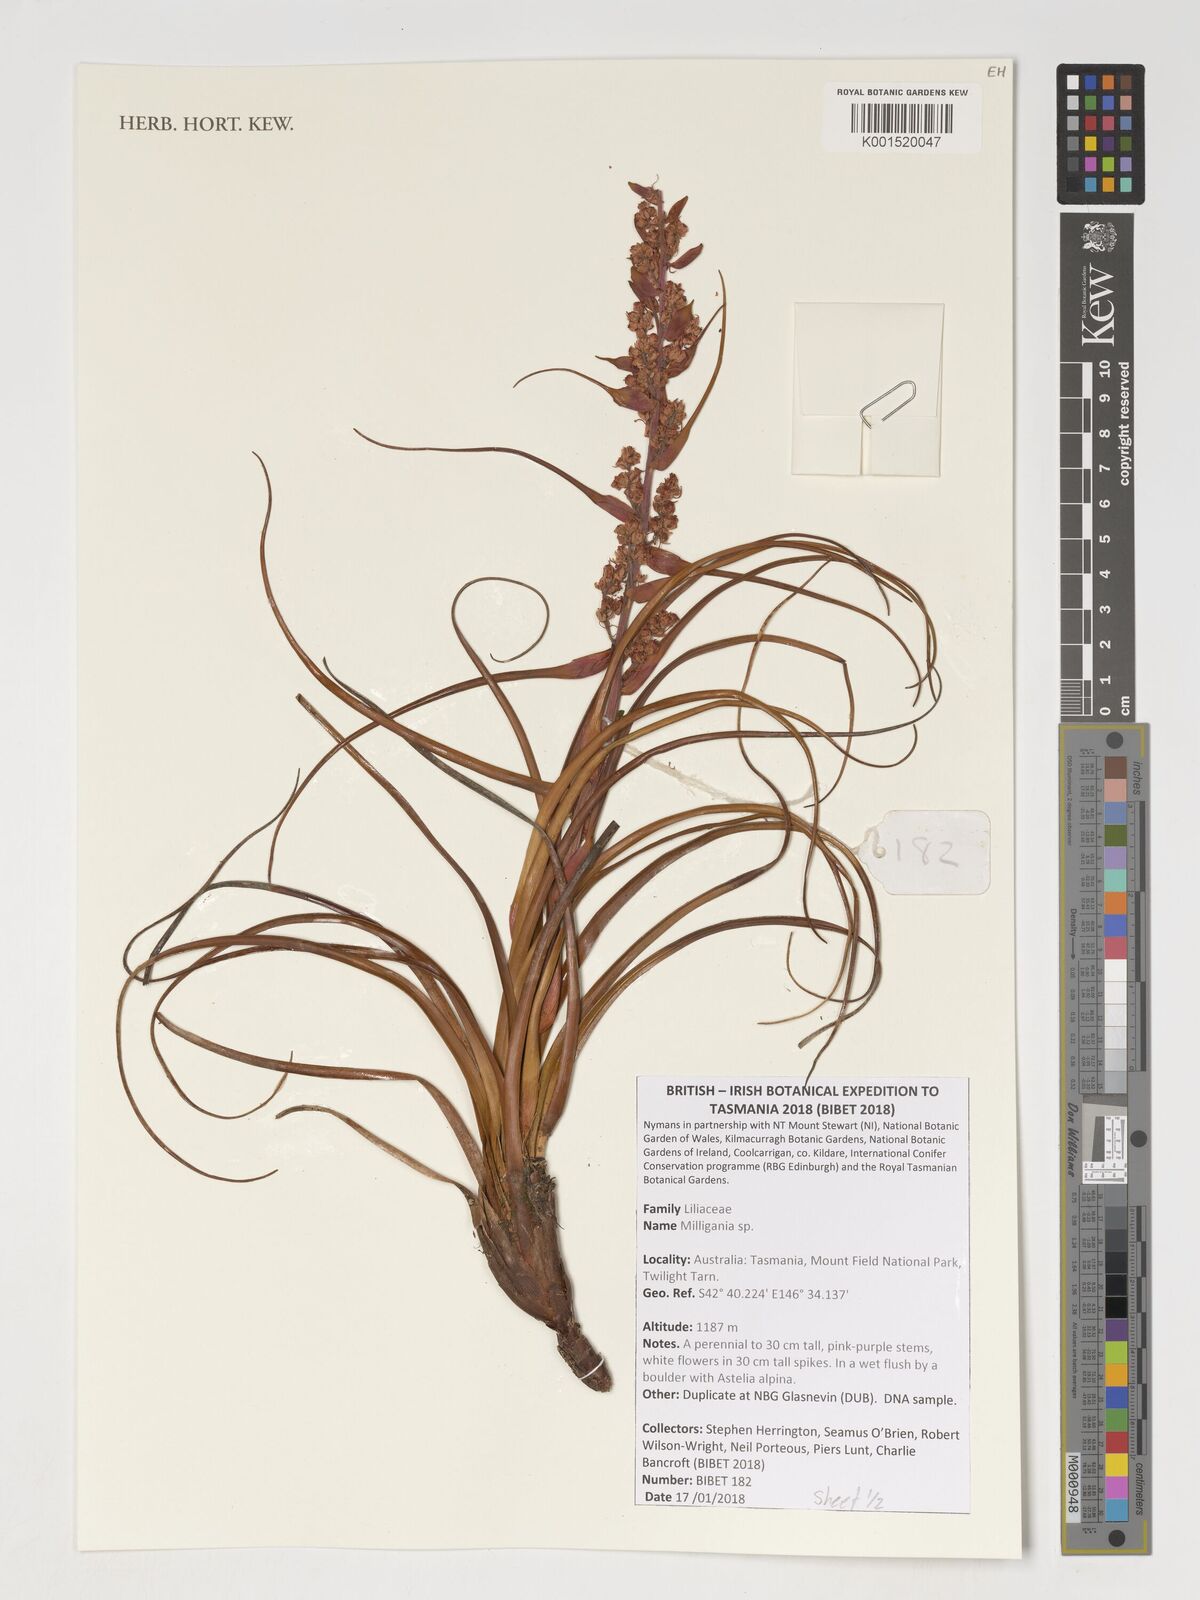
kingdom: Plantae
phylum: Tracheophyta
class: Liliopsida
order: Asparagales
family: Asteliaceae
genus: Milligania
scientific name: Milligania
